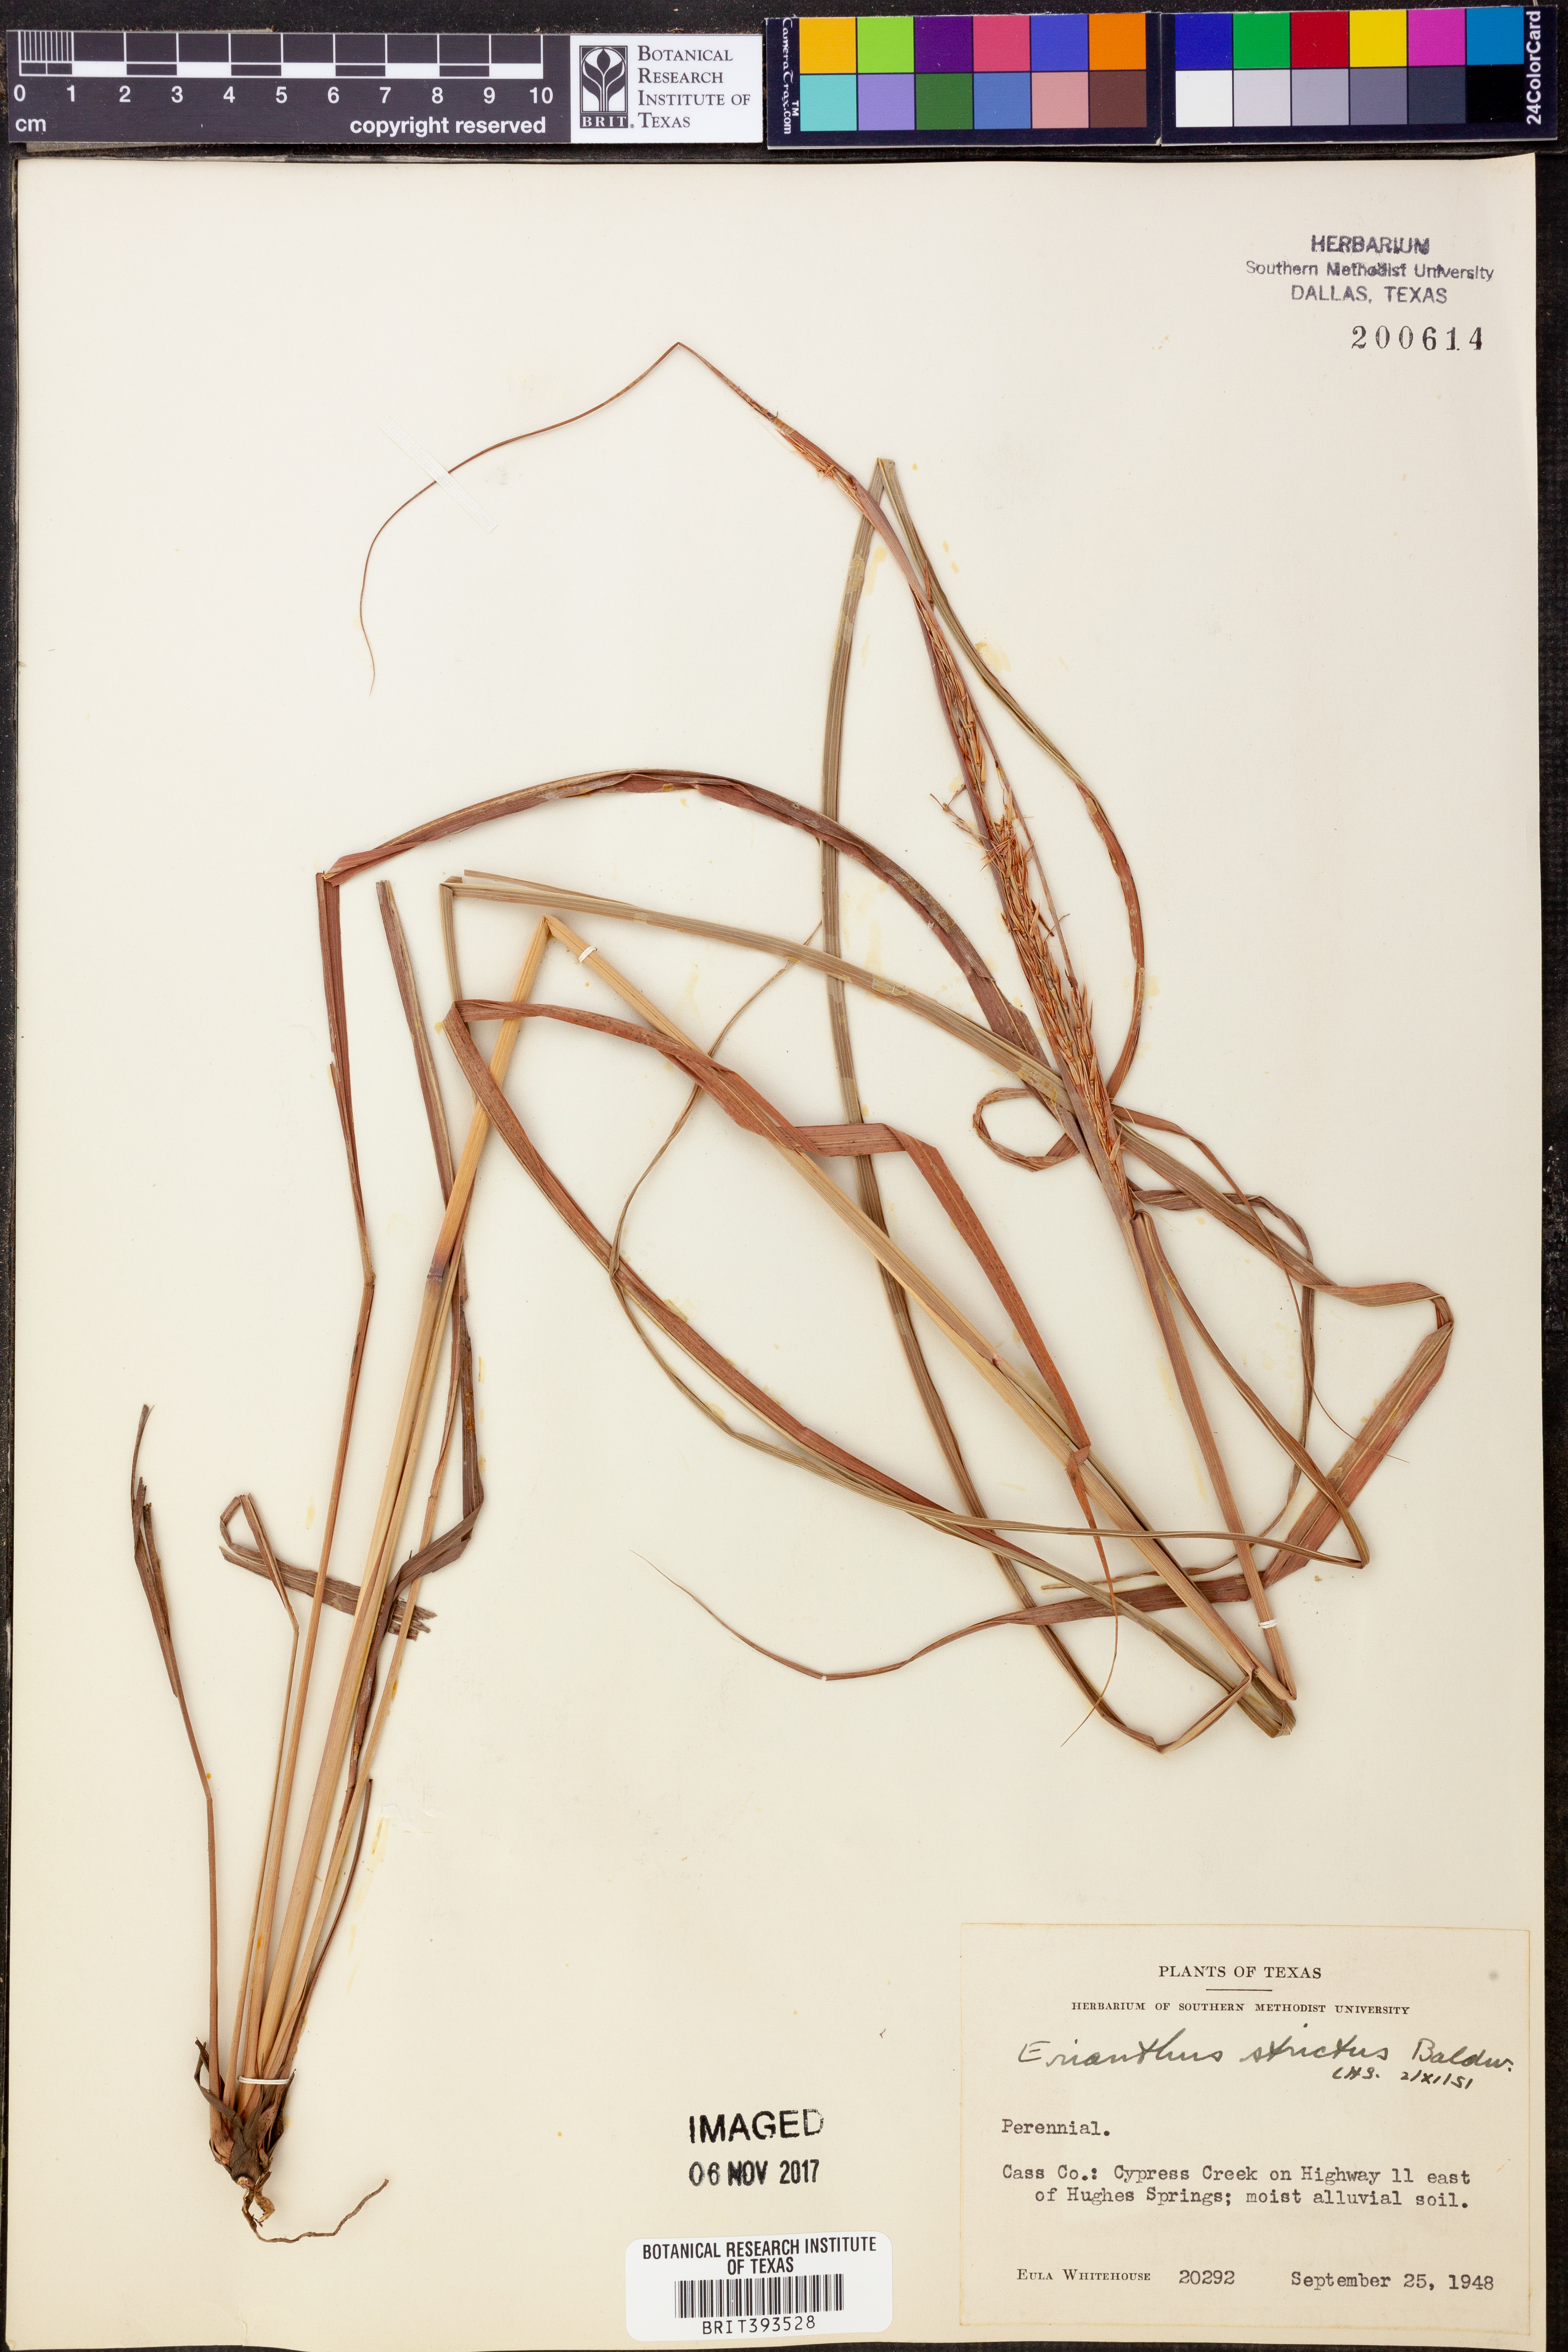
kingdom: Plantae
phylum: Tracheophyta
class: Liliopsida
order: Poales
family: Poaceae
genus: Erianthus
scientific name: Erianthus strictus
